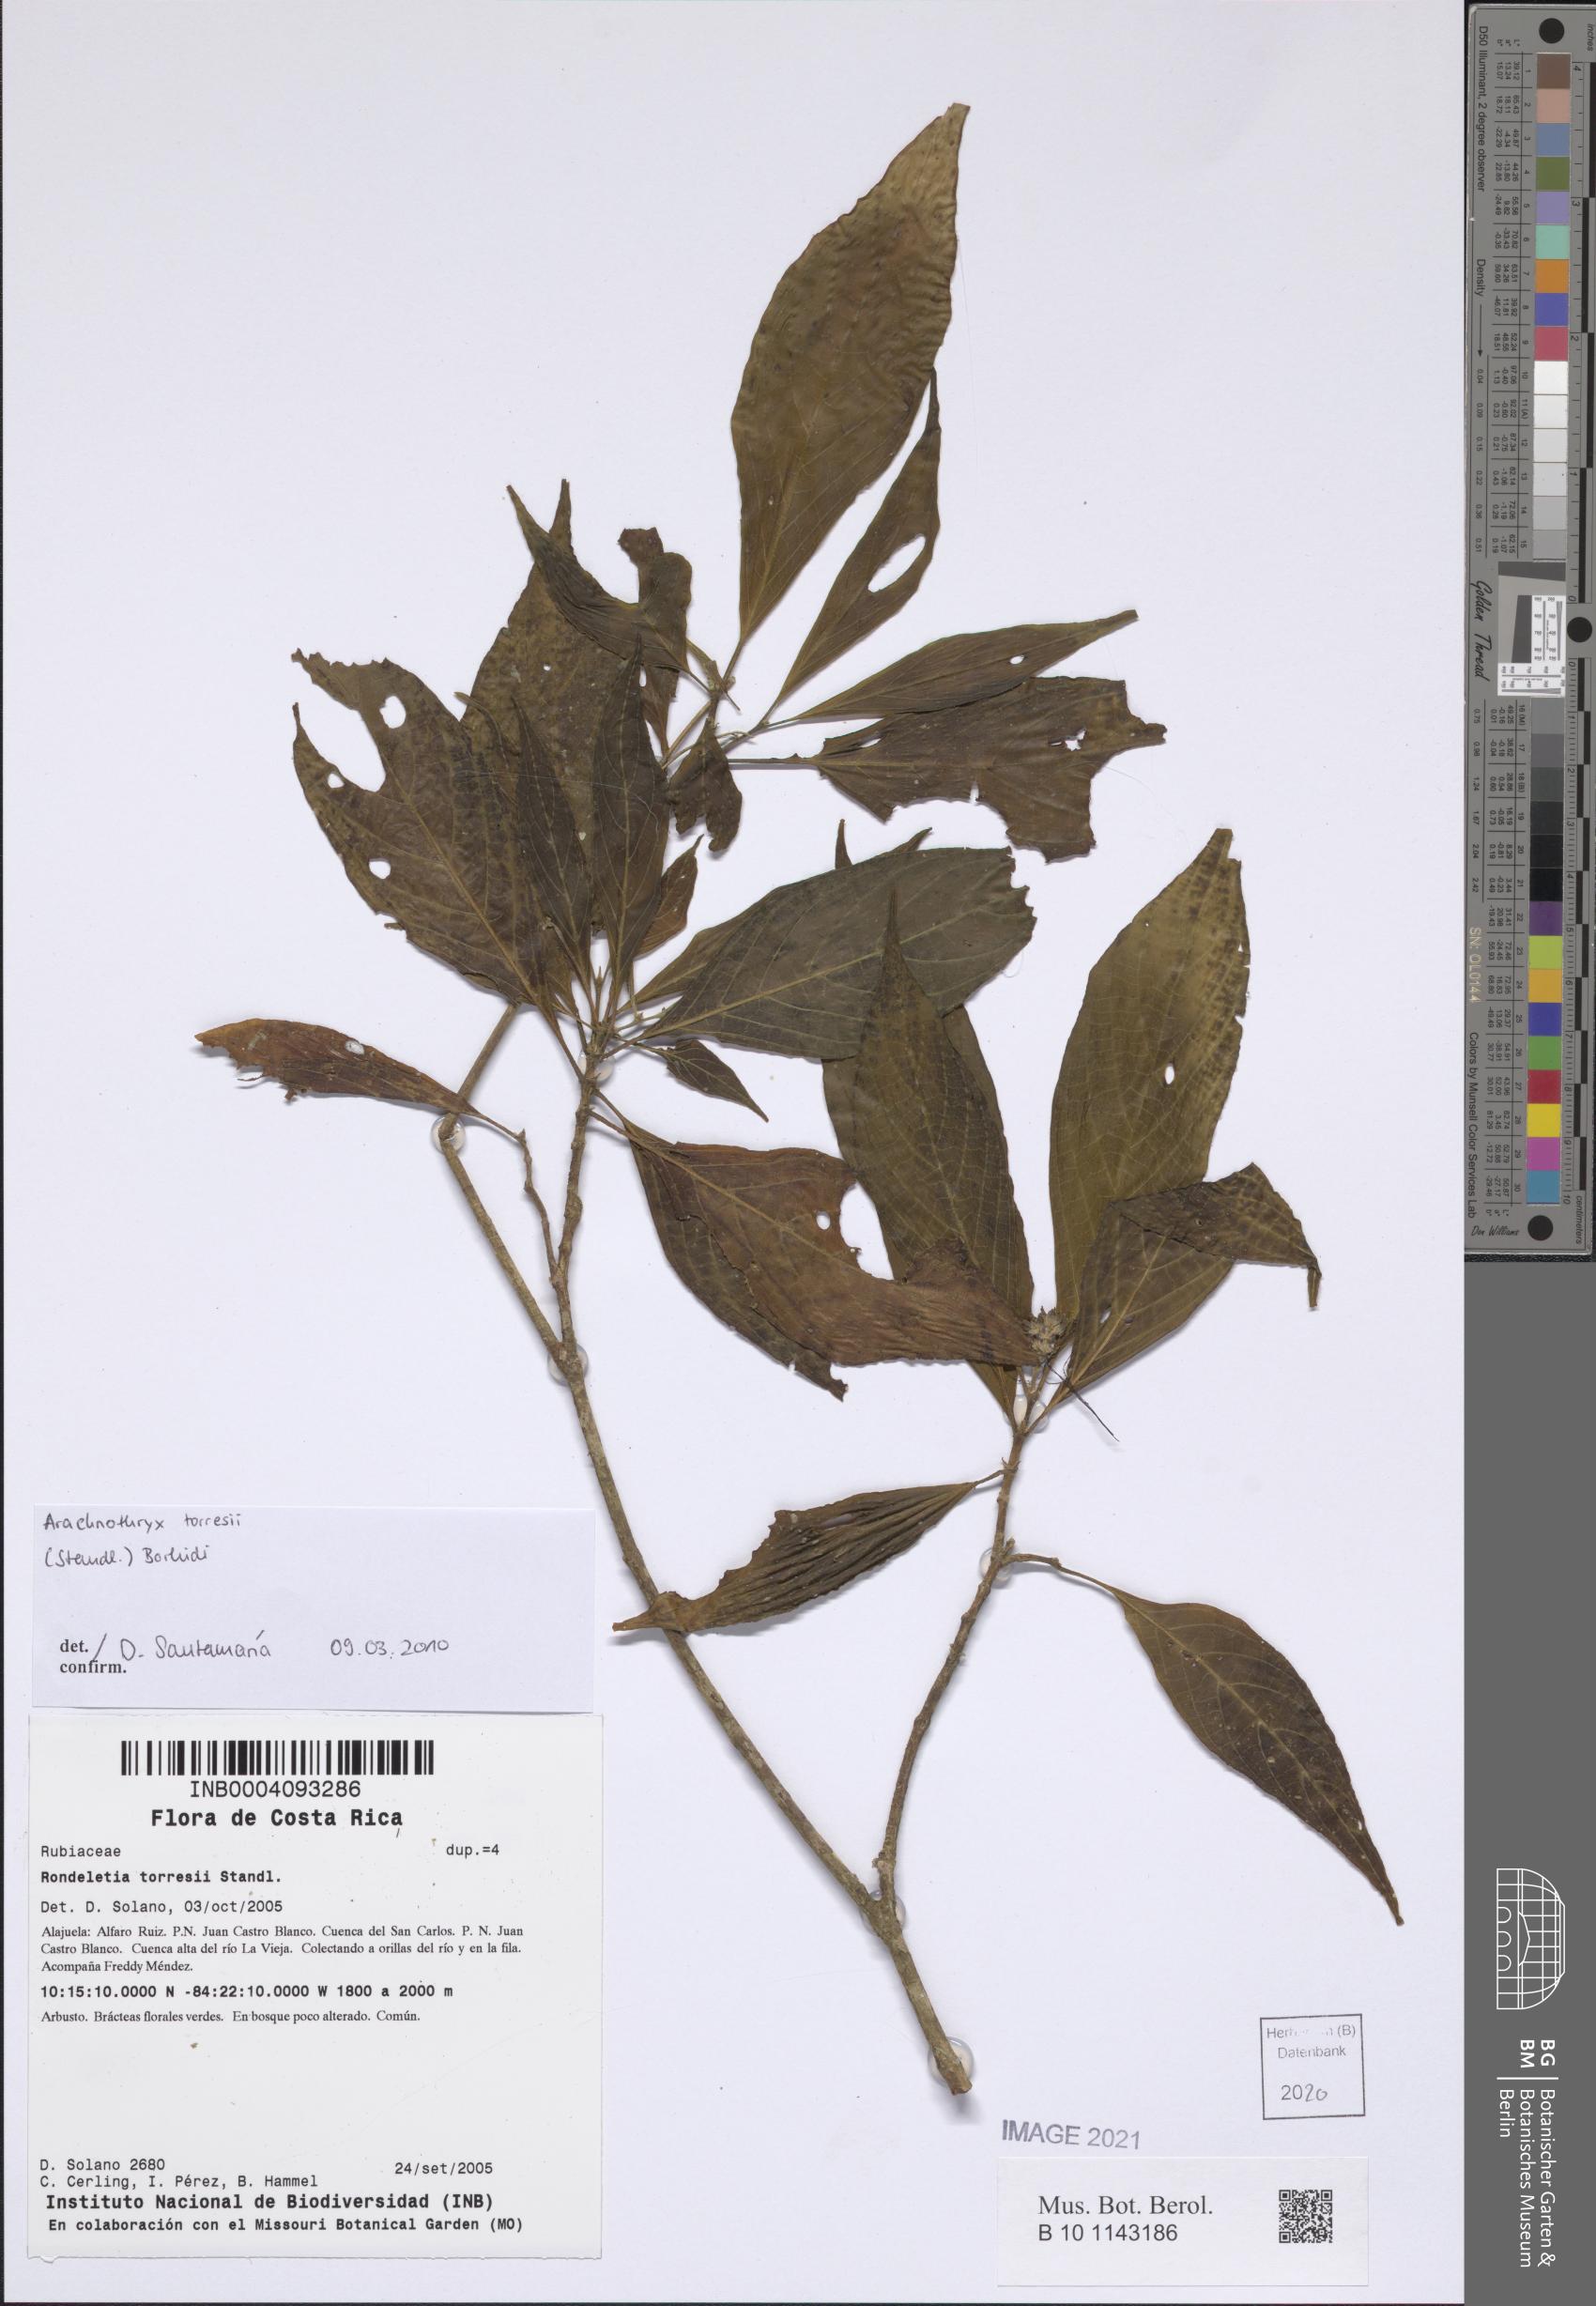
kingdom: Plantae
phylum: Tracheophyta
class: Magnoliopsida
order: Gentianales
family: Rubiaceae
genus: Arachnothryx
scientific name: Arachnothryx torresii
